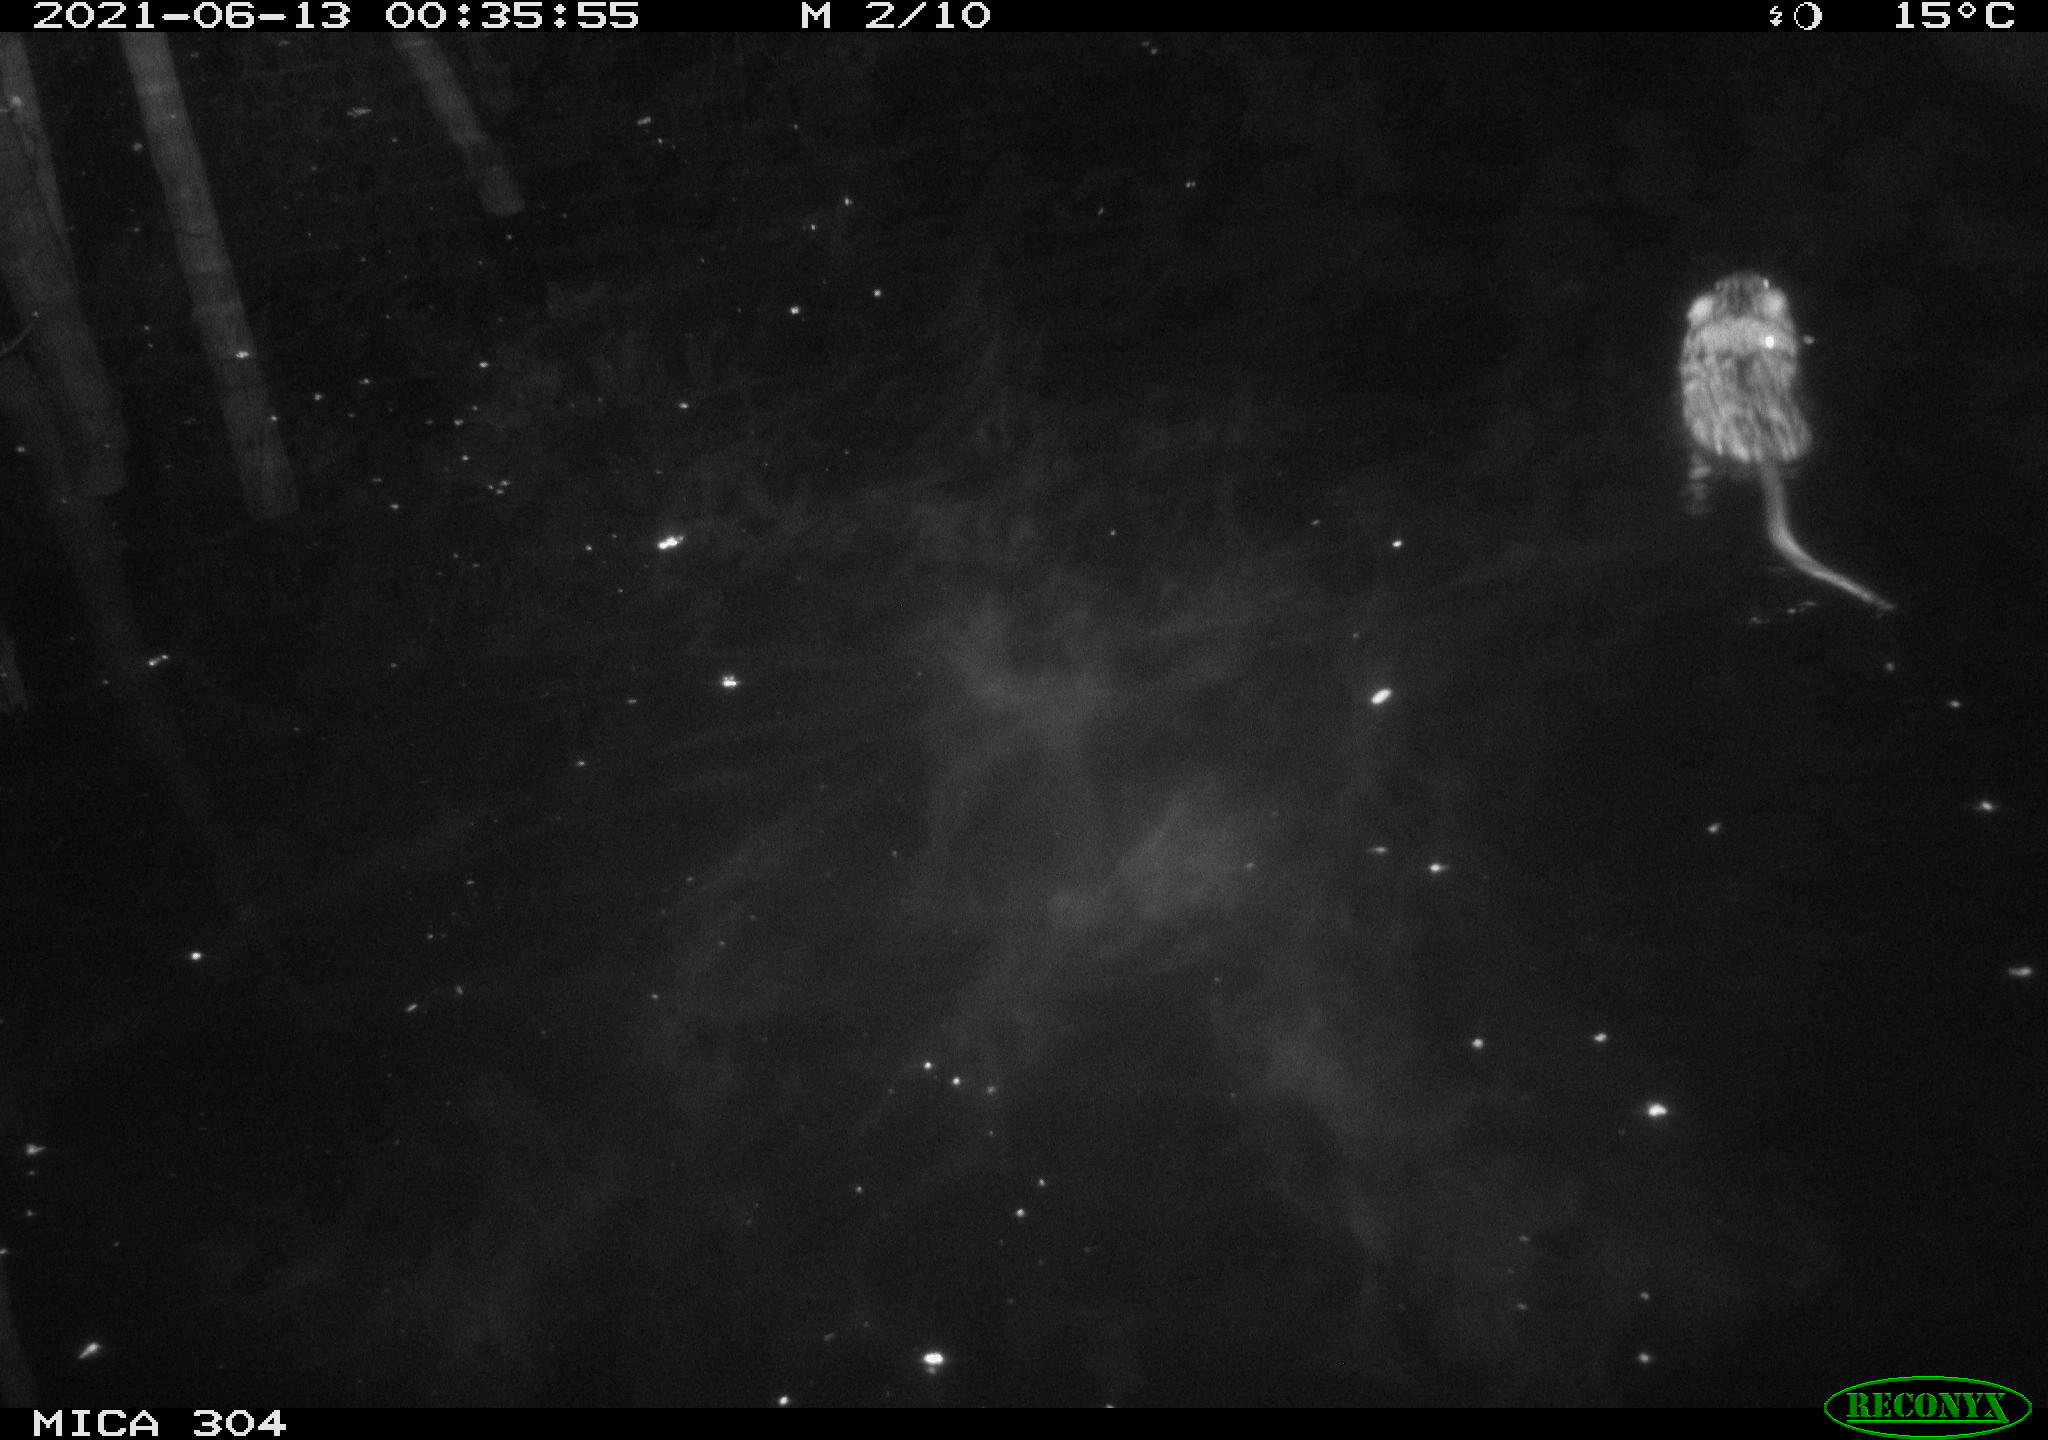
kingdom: Animalia
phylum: Chordata
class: Mammalia
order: Rodentia
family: Cricetidae
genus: Ondatra
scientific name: Ondatra zibethicus
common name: Muskrat
